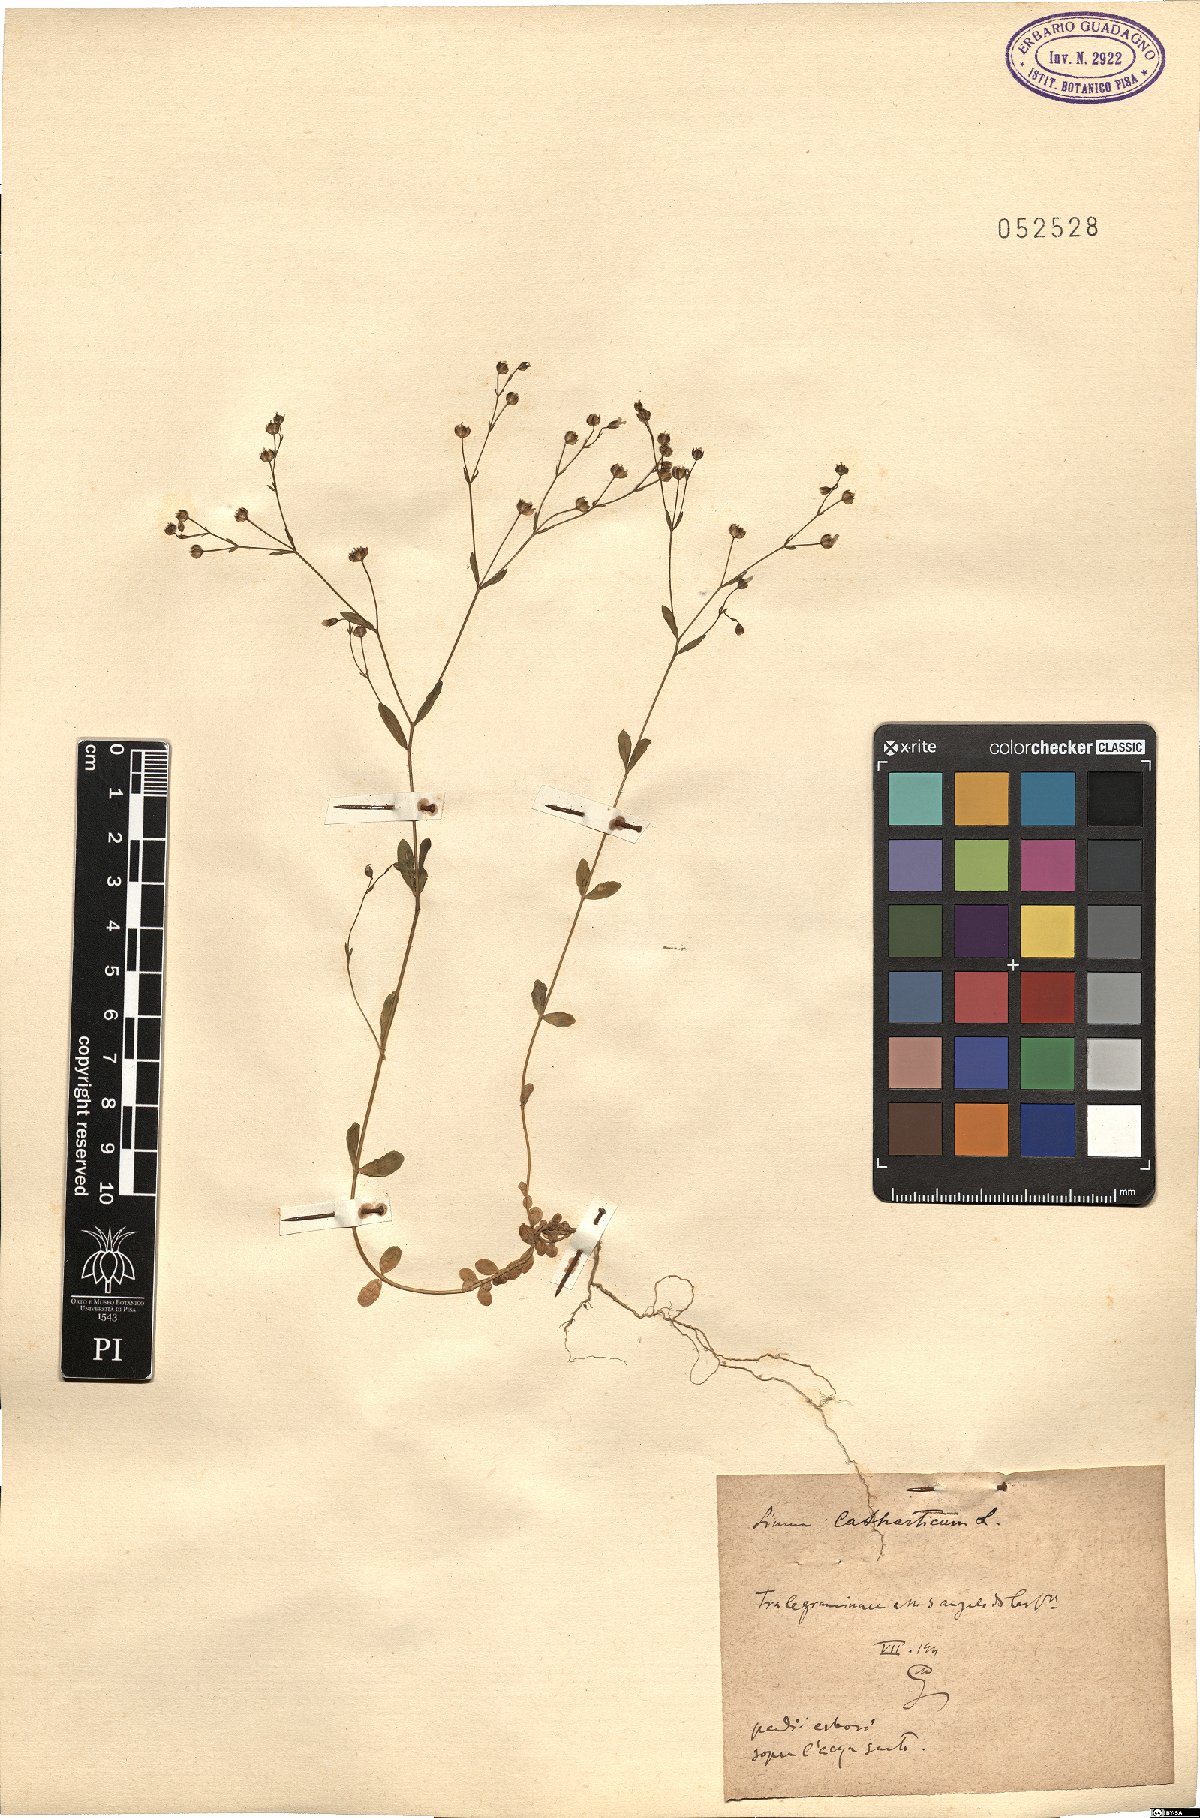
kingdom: Plantae
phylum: Tracheophyta
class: Magnoliopsida
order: Malpighiales
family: Linaceae
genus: Linum
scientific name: Linum catharticum
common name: Fairy flax
